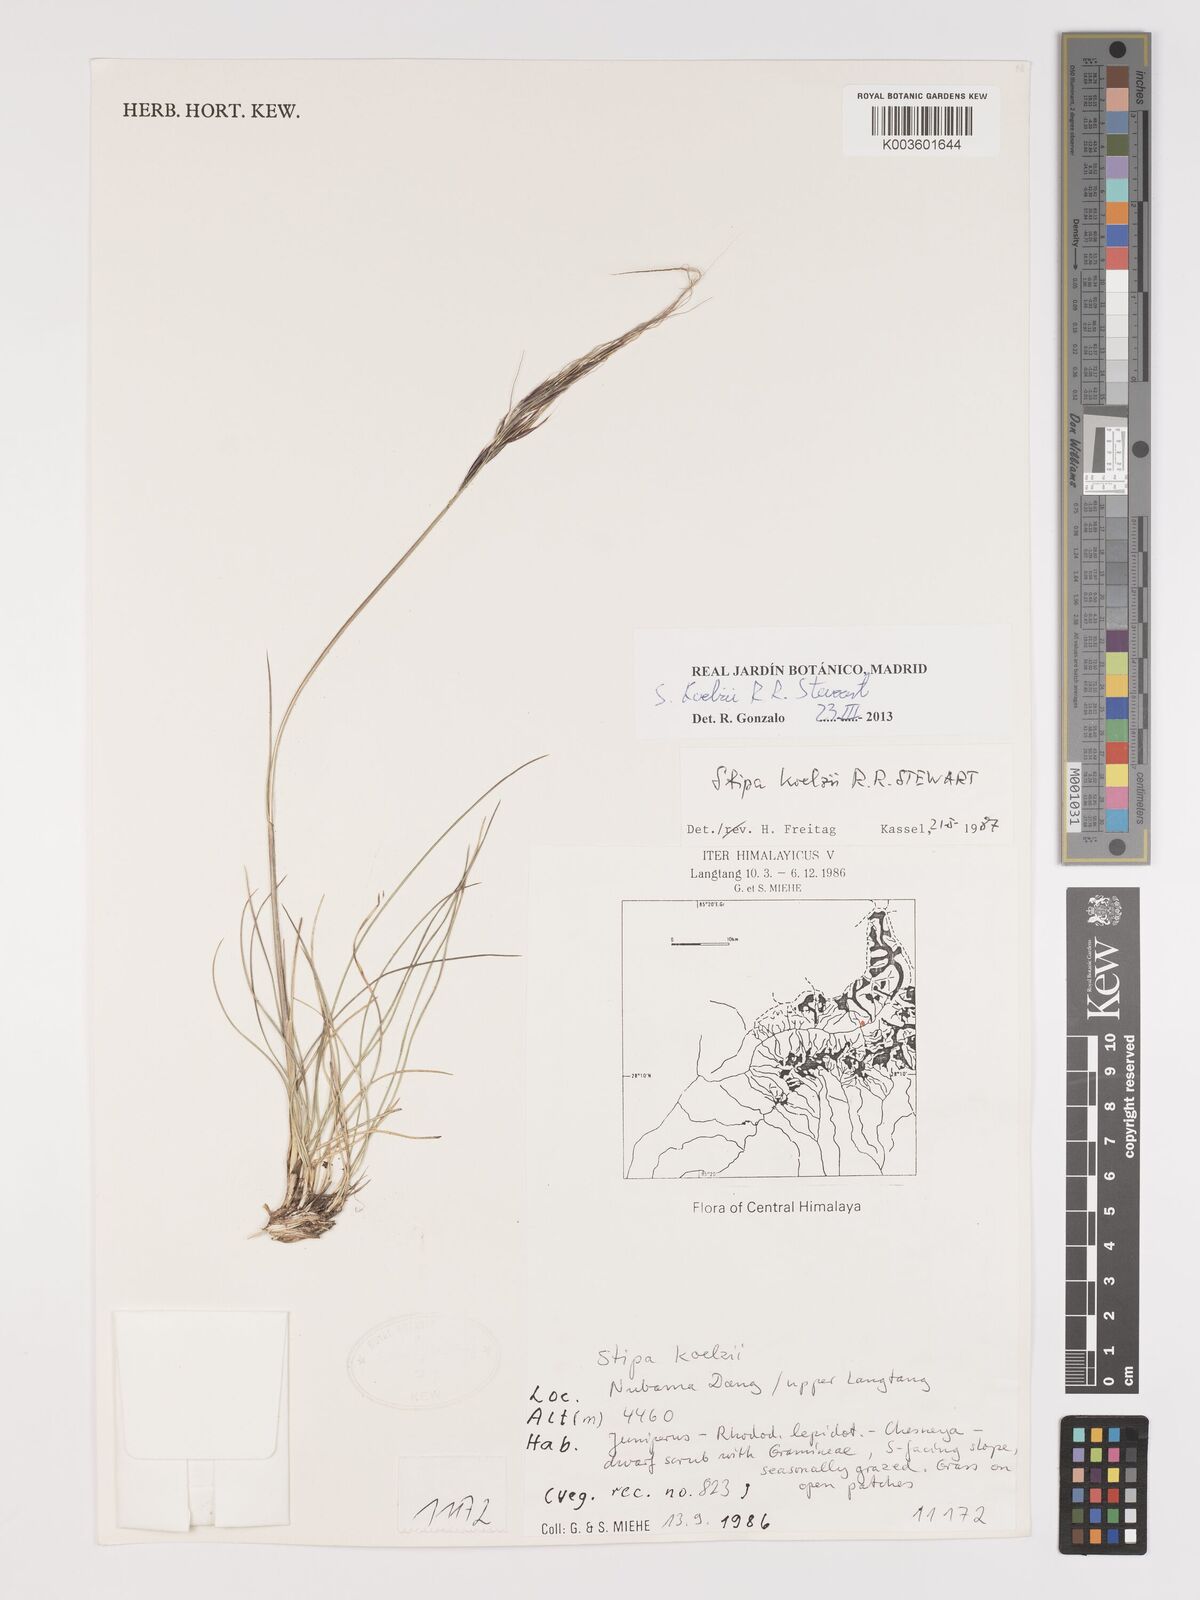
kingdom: Plantae
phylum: Tracheophyta
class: Liliopsida
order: Poales
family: Poaceae
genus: Stipa
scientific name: Stipa capillacea
